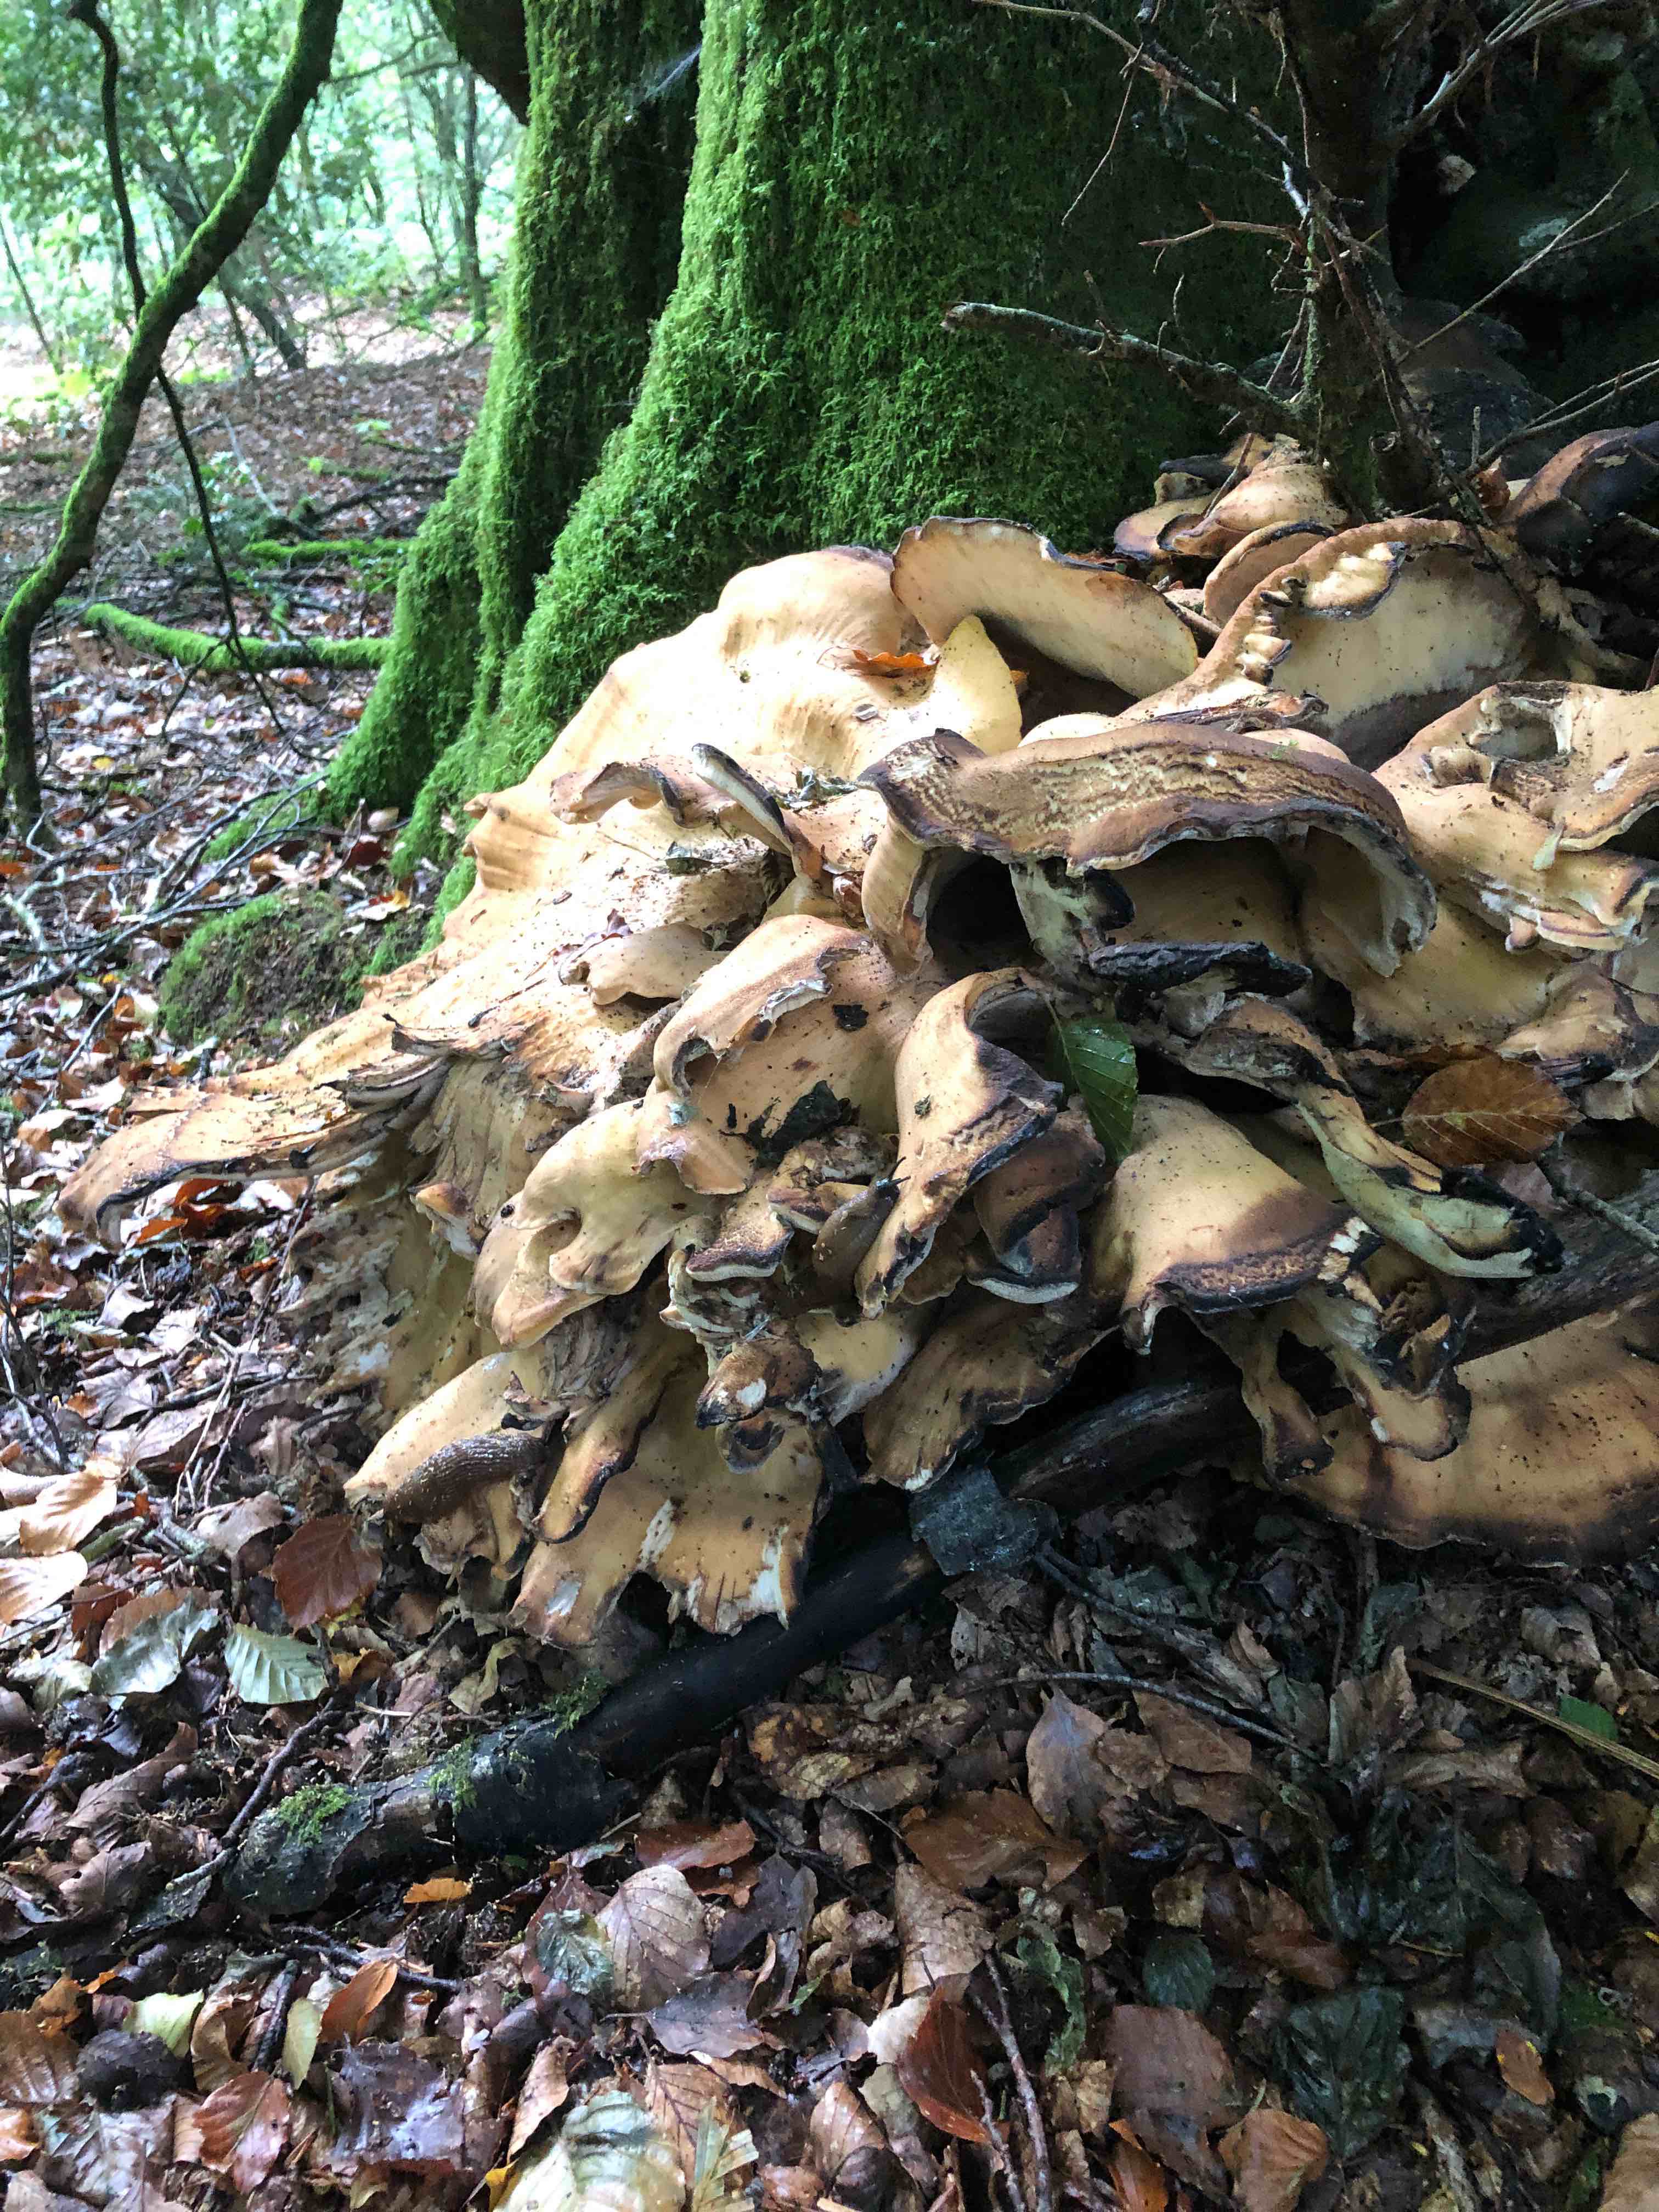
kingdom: Fungi
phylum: Basidiomycota
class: Agaricomycetes
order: Polyporales
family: Meripilaceae
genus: Meripilus
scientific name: Meripilus giganteus
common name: kæmpeporesvamp
